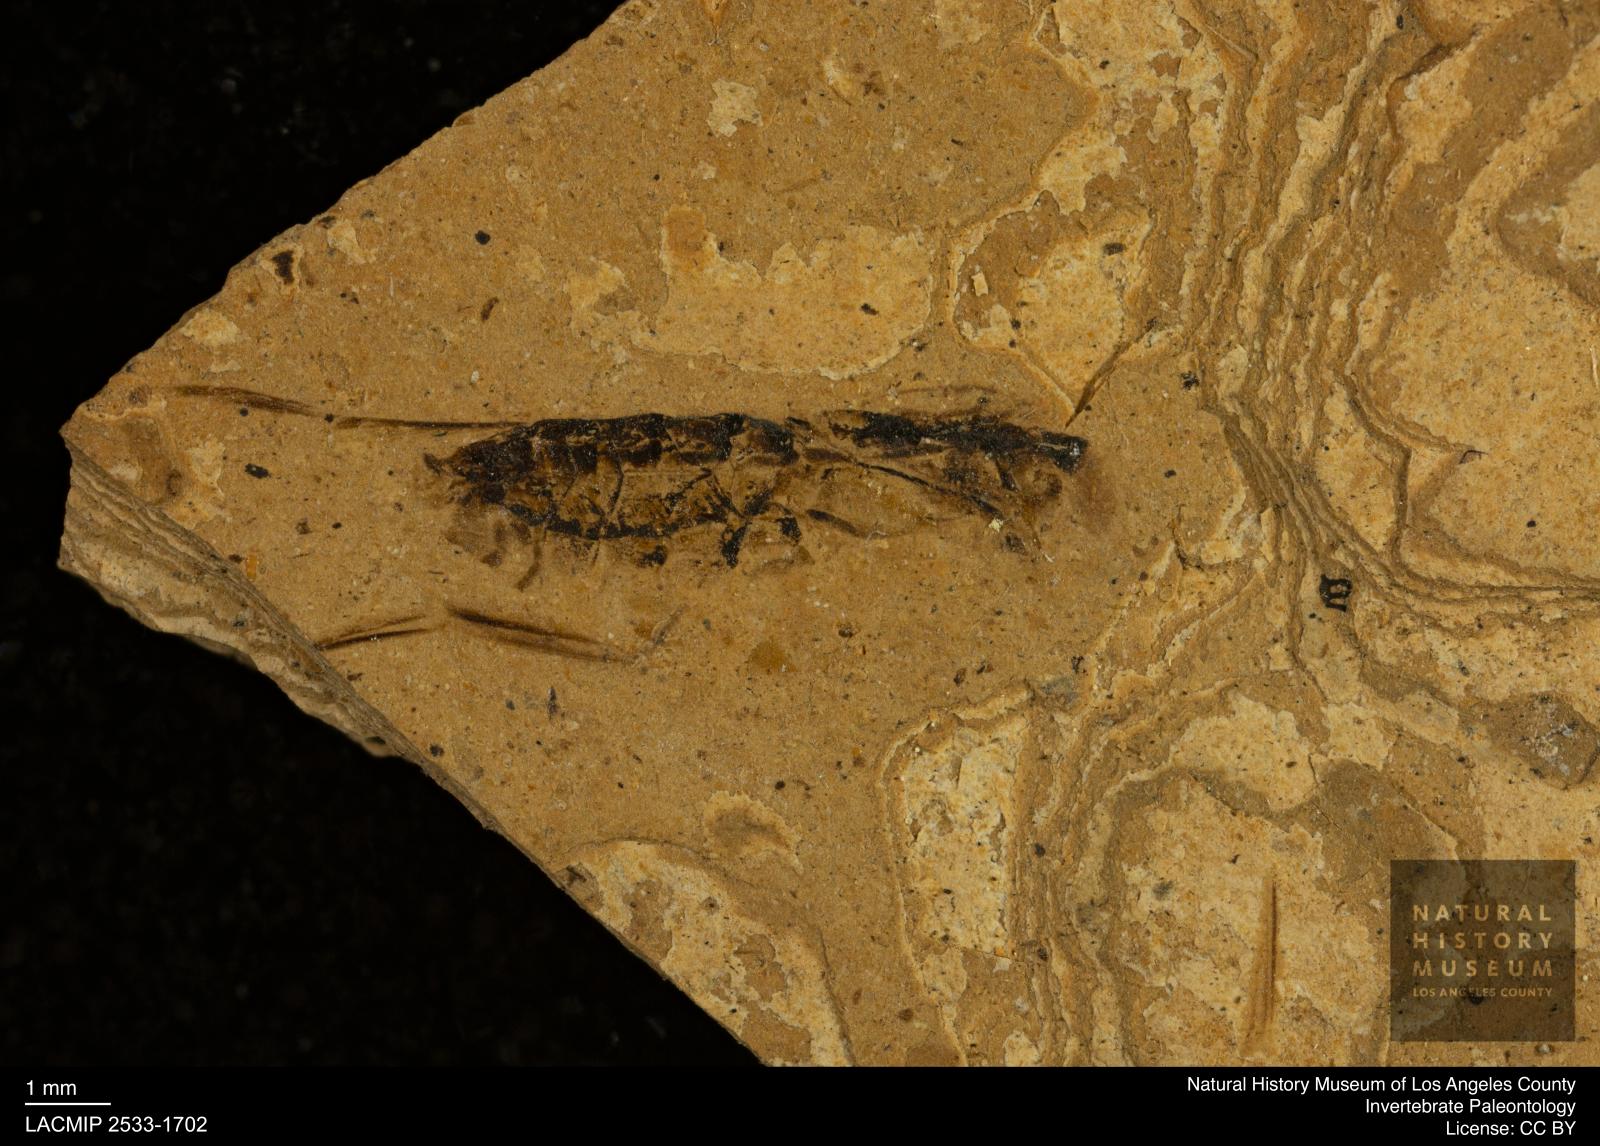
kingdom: Animalia
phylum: Arthropoda
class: Insecta
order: Hemiptera
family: Notonectidae
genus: Notonecta
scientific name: Notonecta
